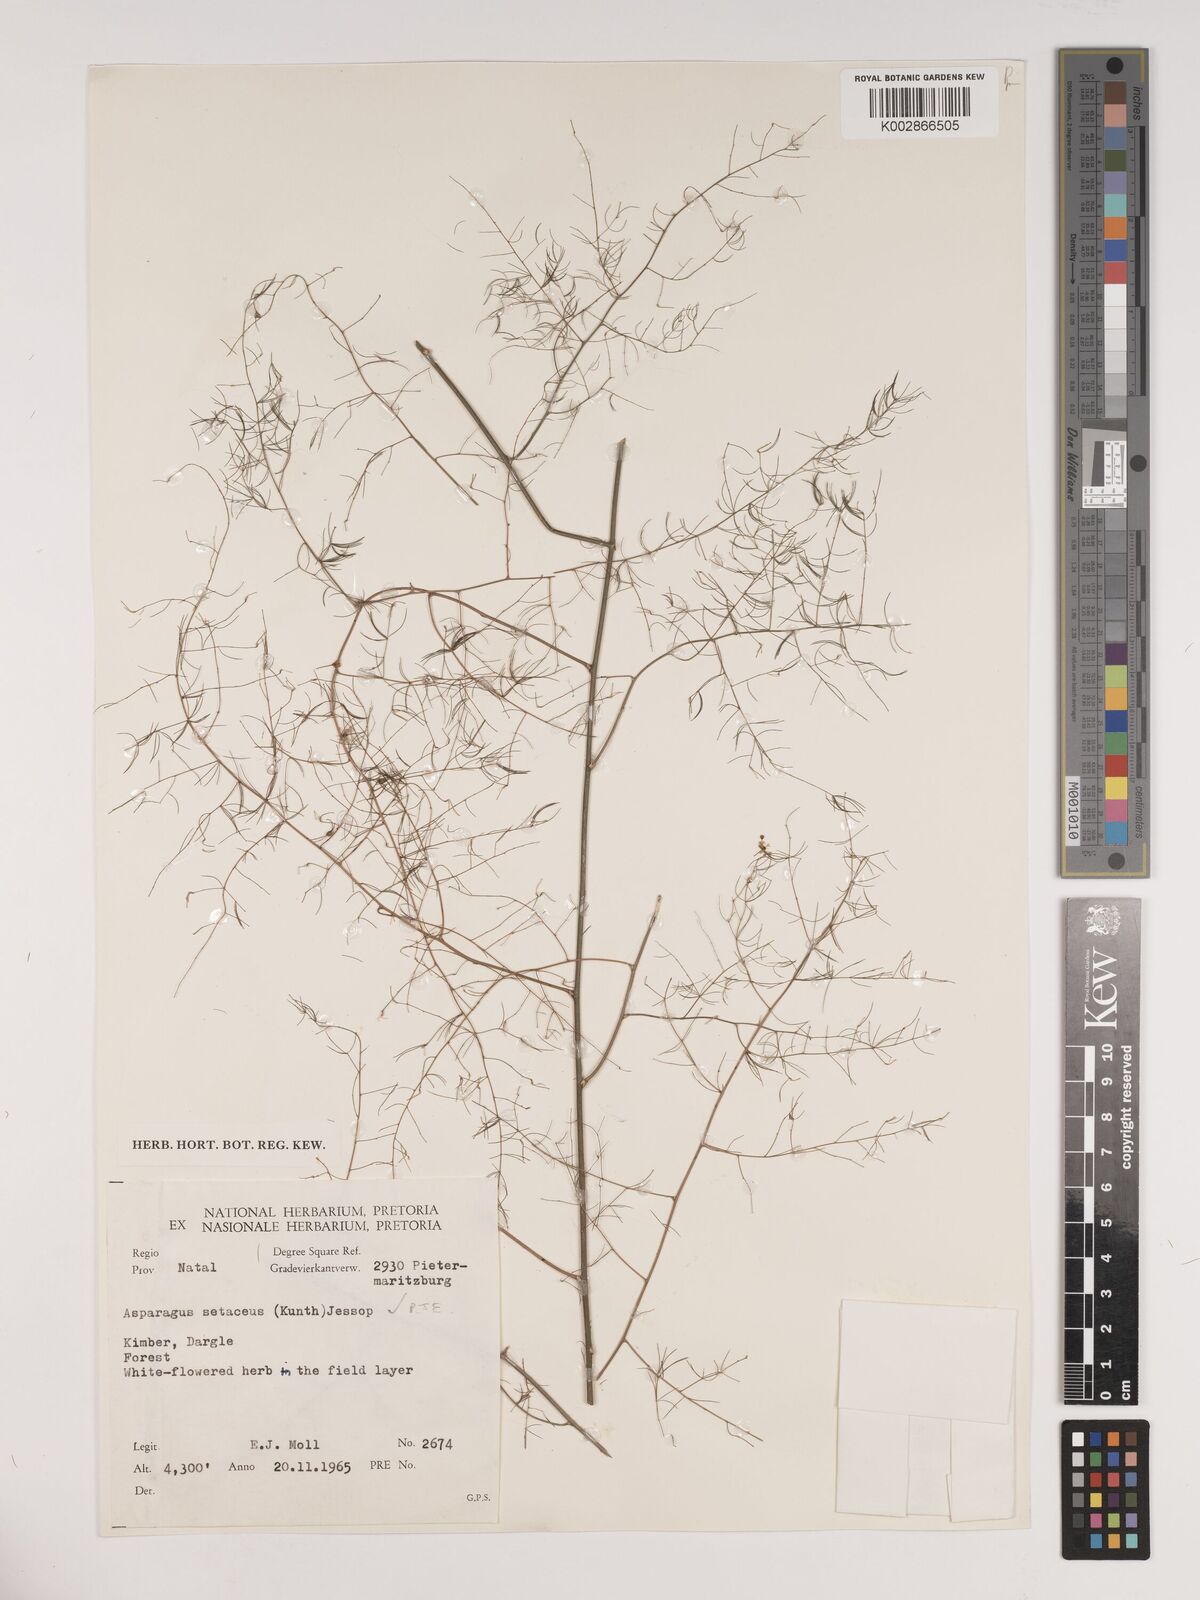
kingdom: Plantae
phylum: Tracheophyta
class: Liliopsida
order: Asparagales
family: Asparagaceae
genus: Asparagus
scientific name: Asparagus setaceus
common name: Common asparagus fern
